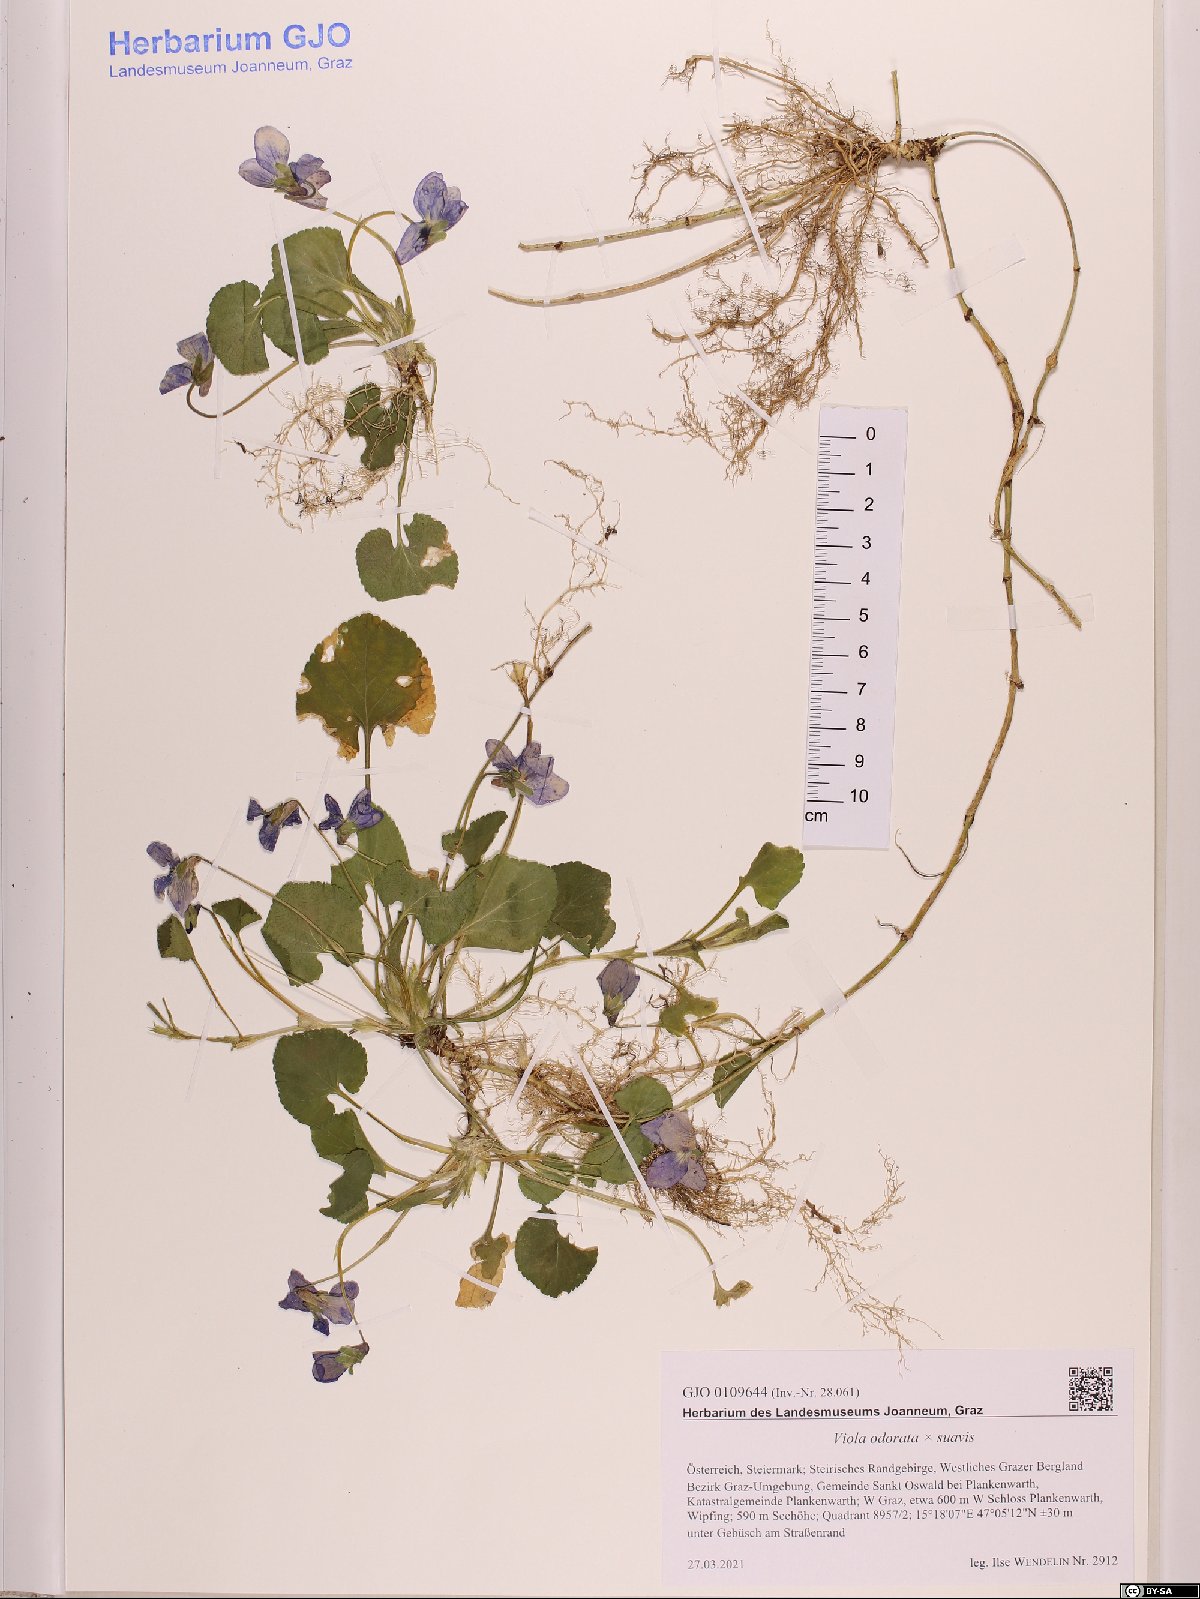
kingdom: Plantae
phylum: Tracheophyta
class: Magnoliopsida
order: Malpighiales
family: Violaceae
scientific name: Violaceae
